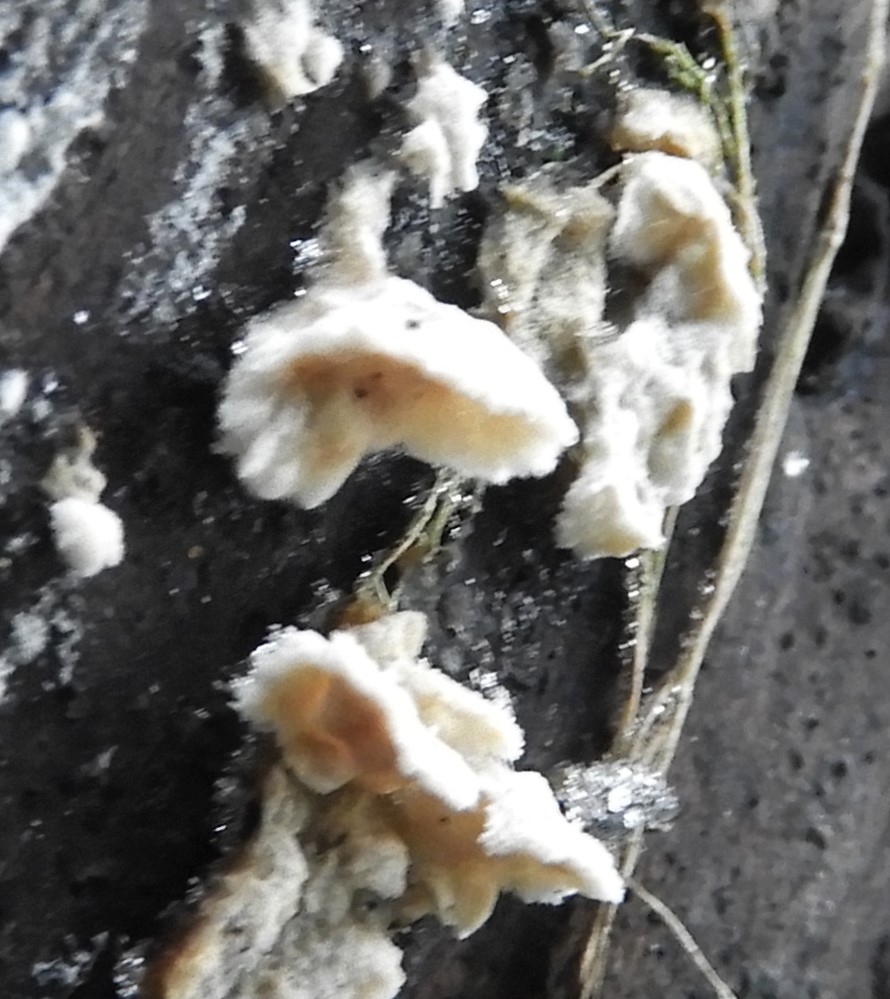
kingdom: Fungi
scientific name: Fungi
